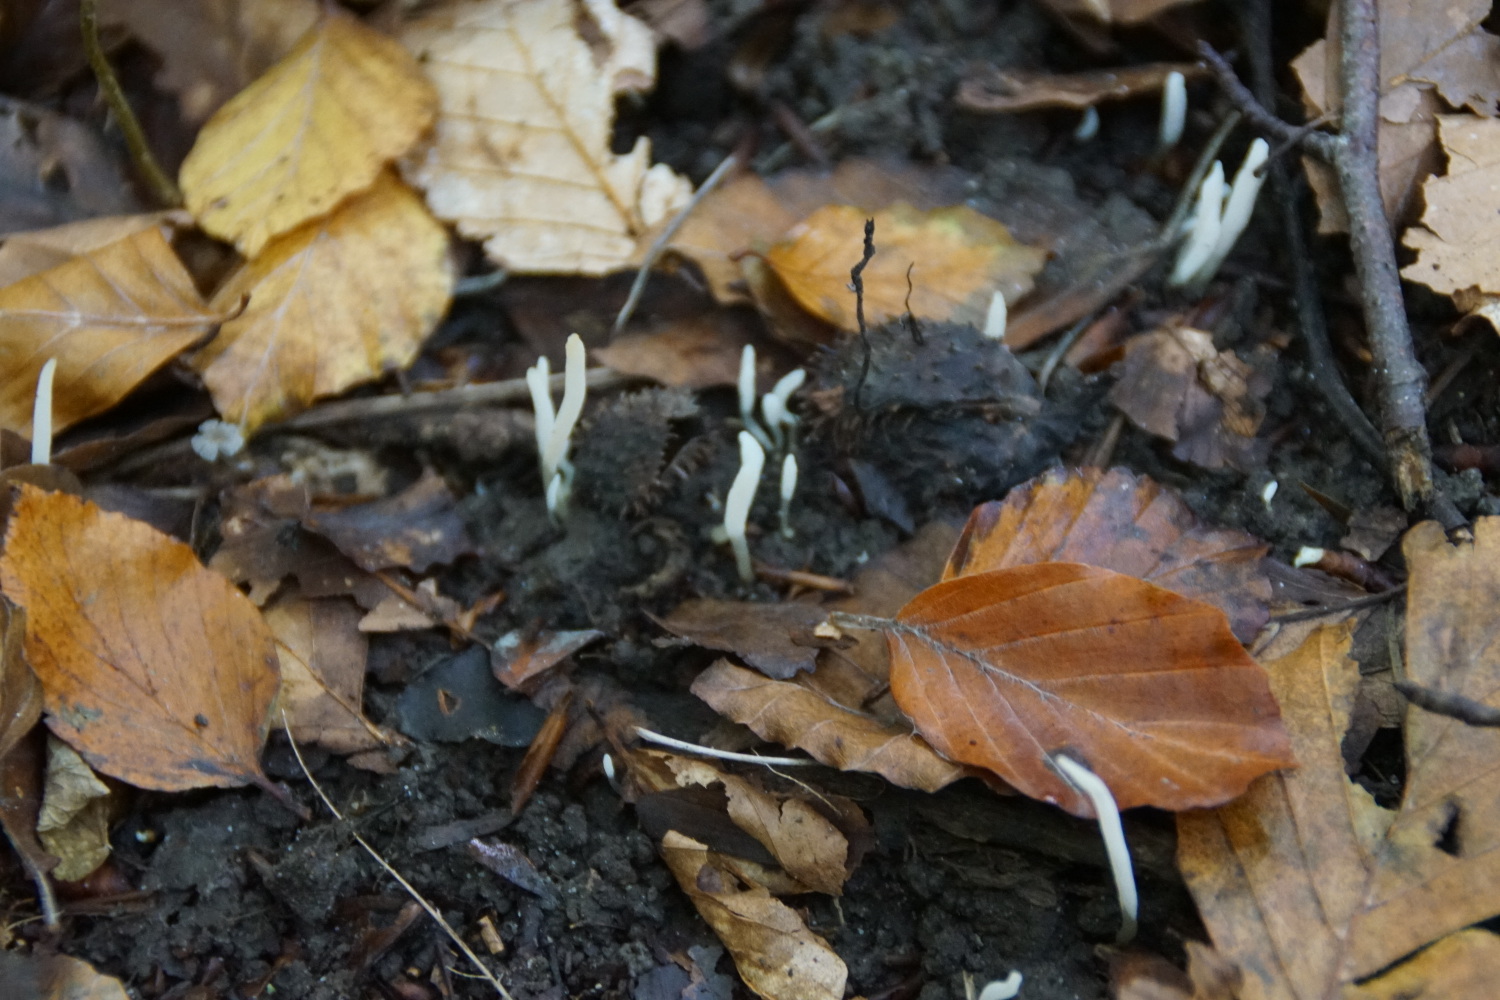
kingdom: Fungi
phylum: Basidiomycota
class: Agaricomycetes
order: Agaricales
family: Clavariaceae
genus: Clavaria
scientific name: Clavaria falcata
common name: hvid køllesvamp
